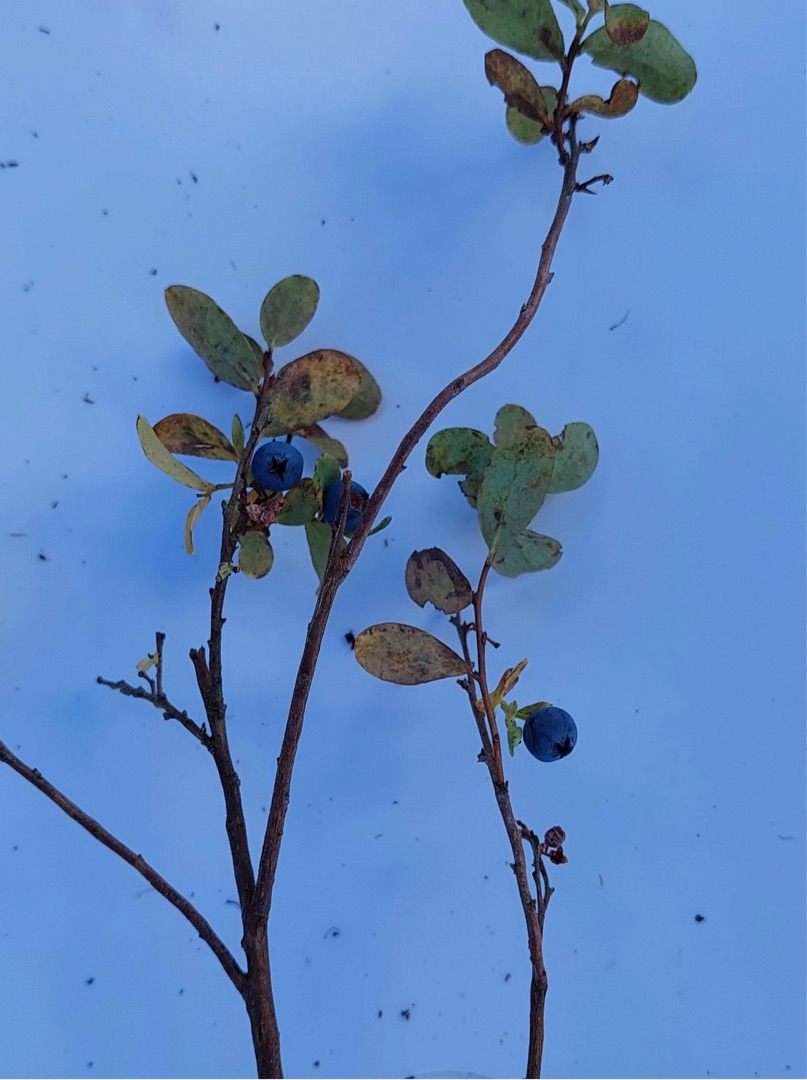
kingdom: Plantae
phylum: Tracheophyta
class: Magnoliopsida
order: Ericales
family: Ericaceae
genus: Vaccinium
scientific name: Vaccinium uliginosum
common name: Mose-bølle
